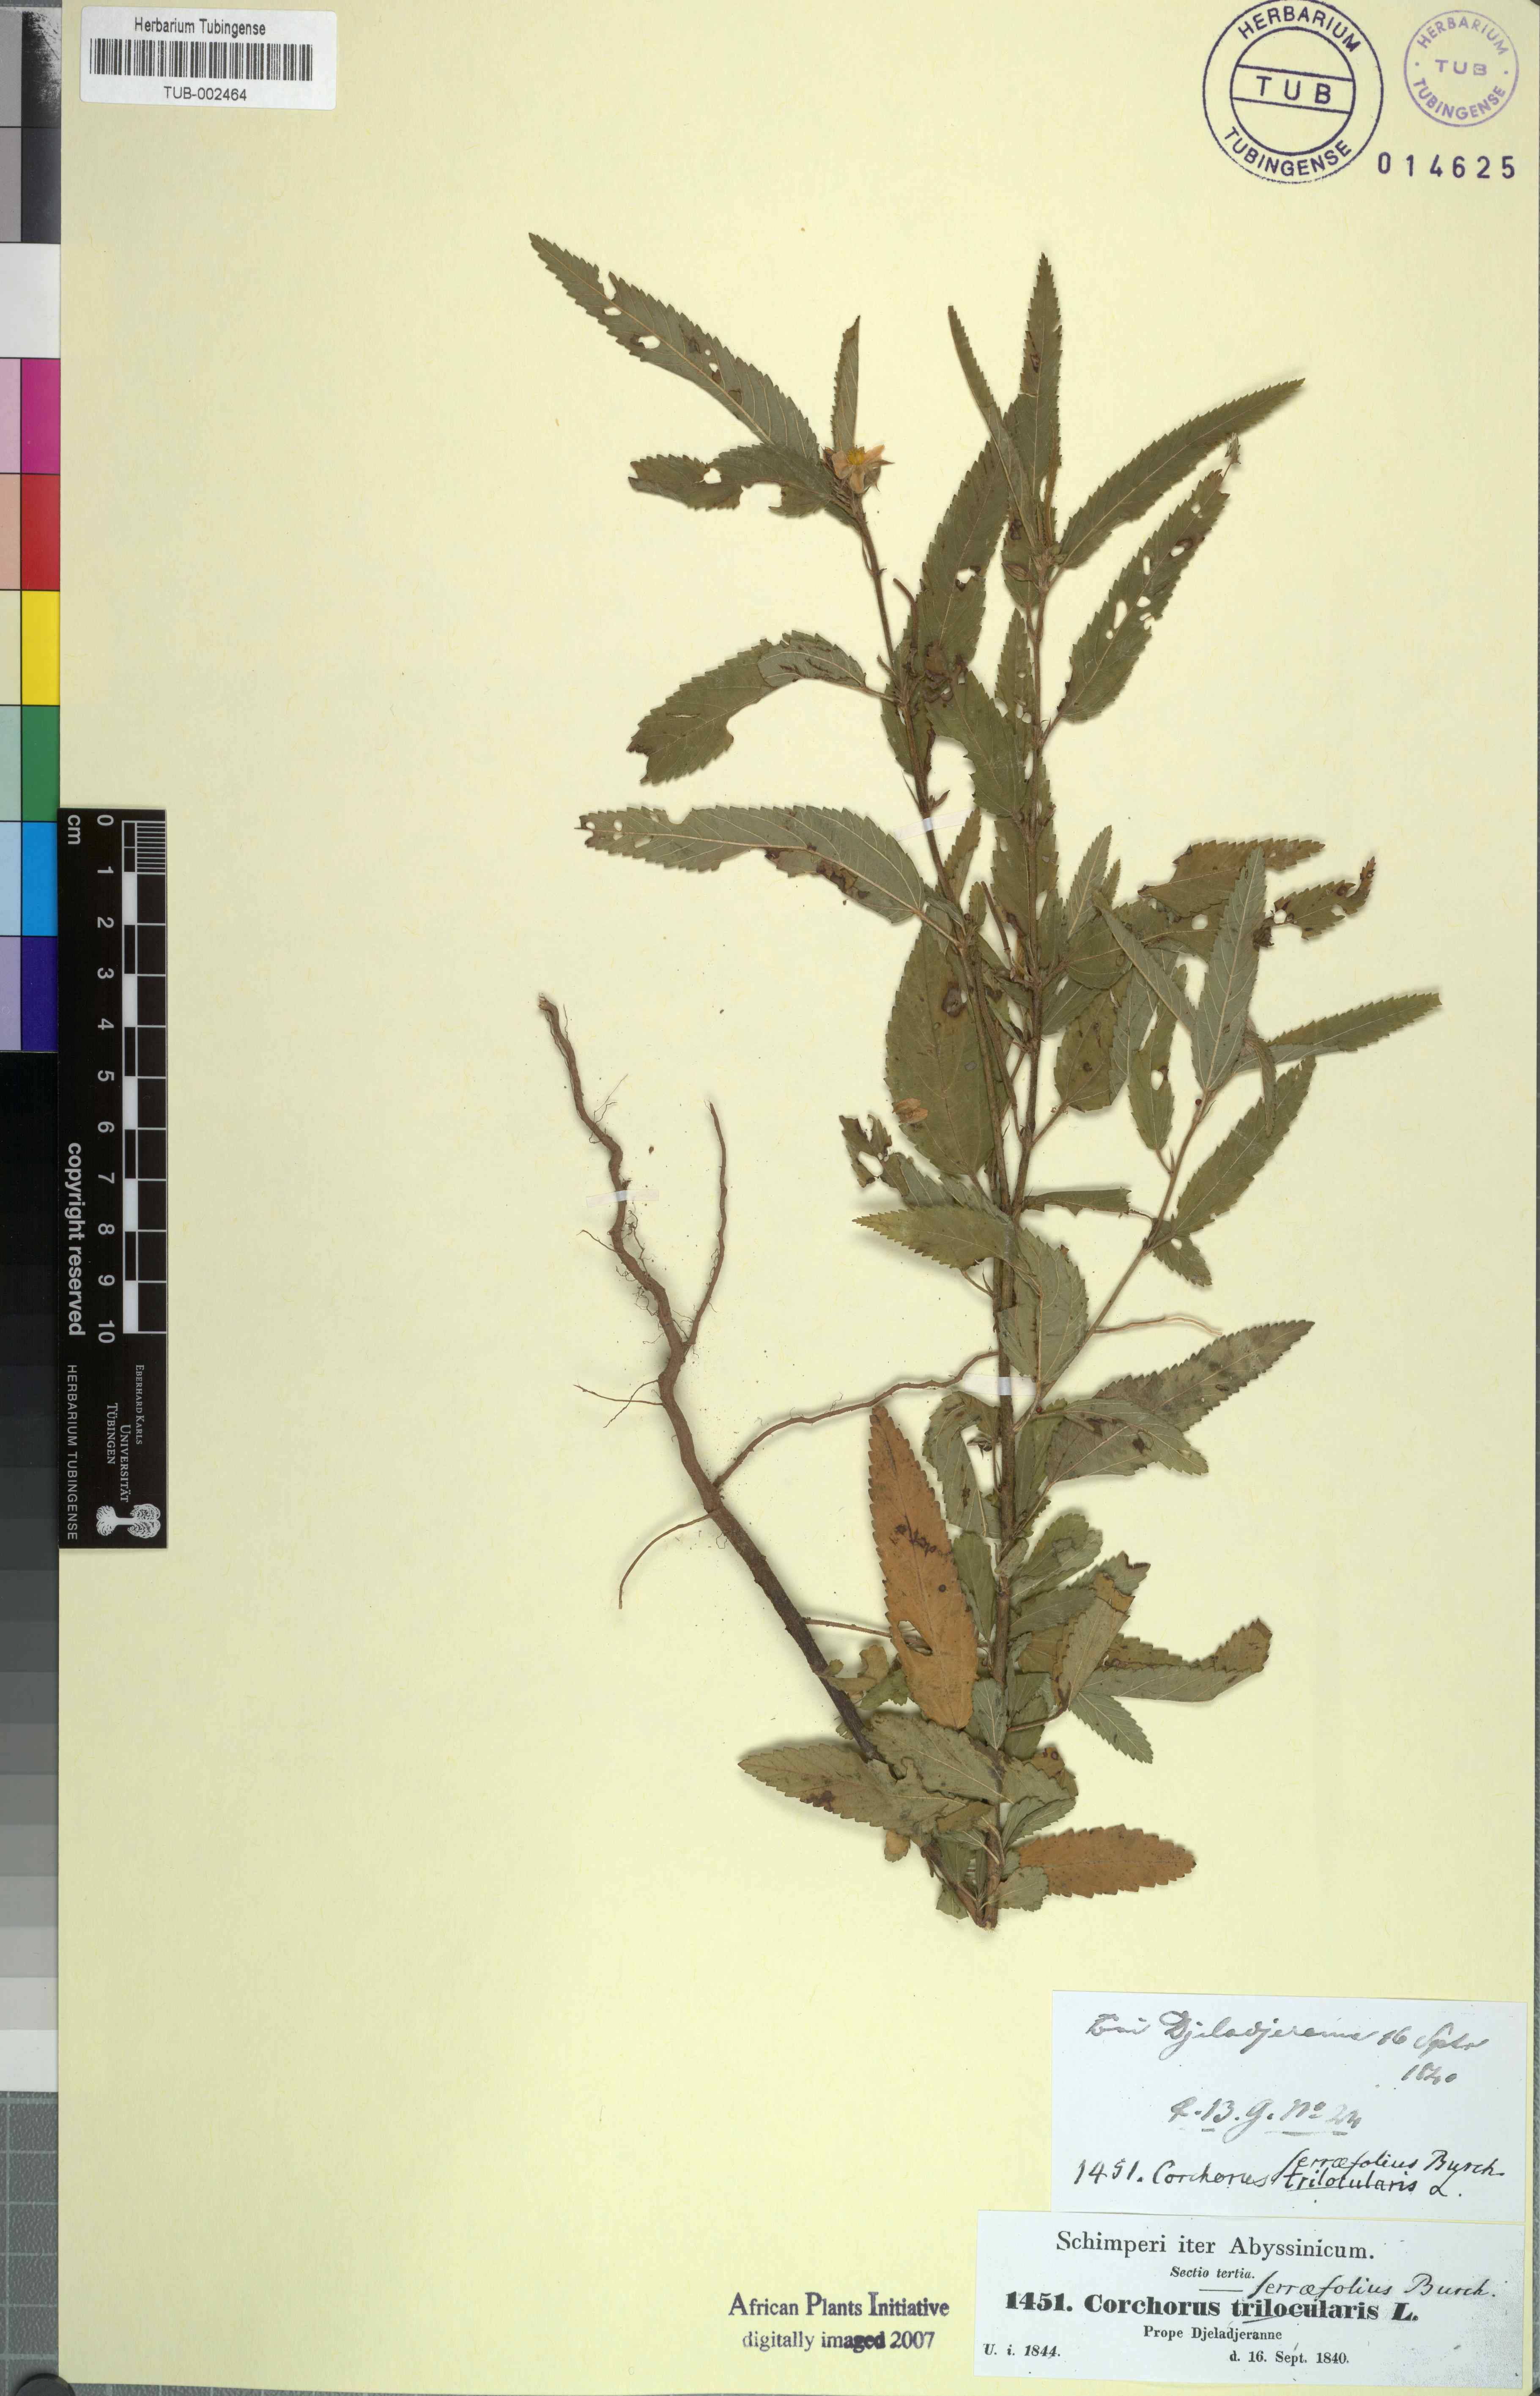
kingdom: Plantae
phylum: Tracheophyta
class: Magnoliopsida
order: Malvales
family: Malvaceae
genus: Corchorus
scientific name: Corchorus trilocularis
